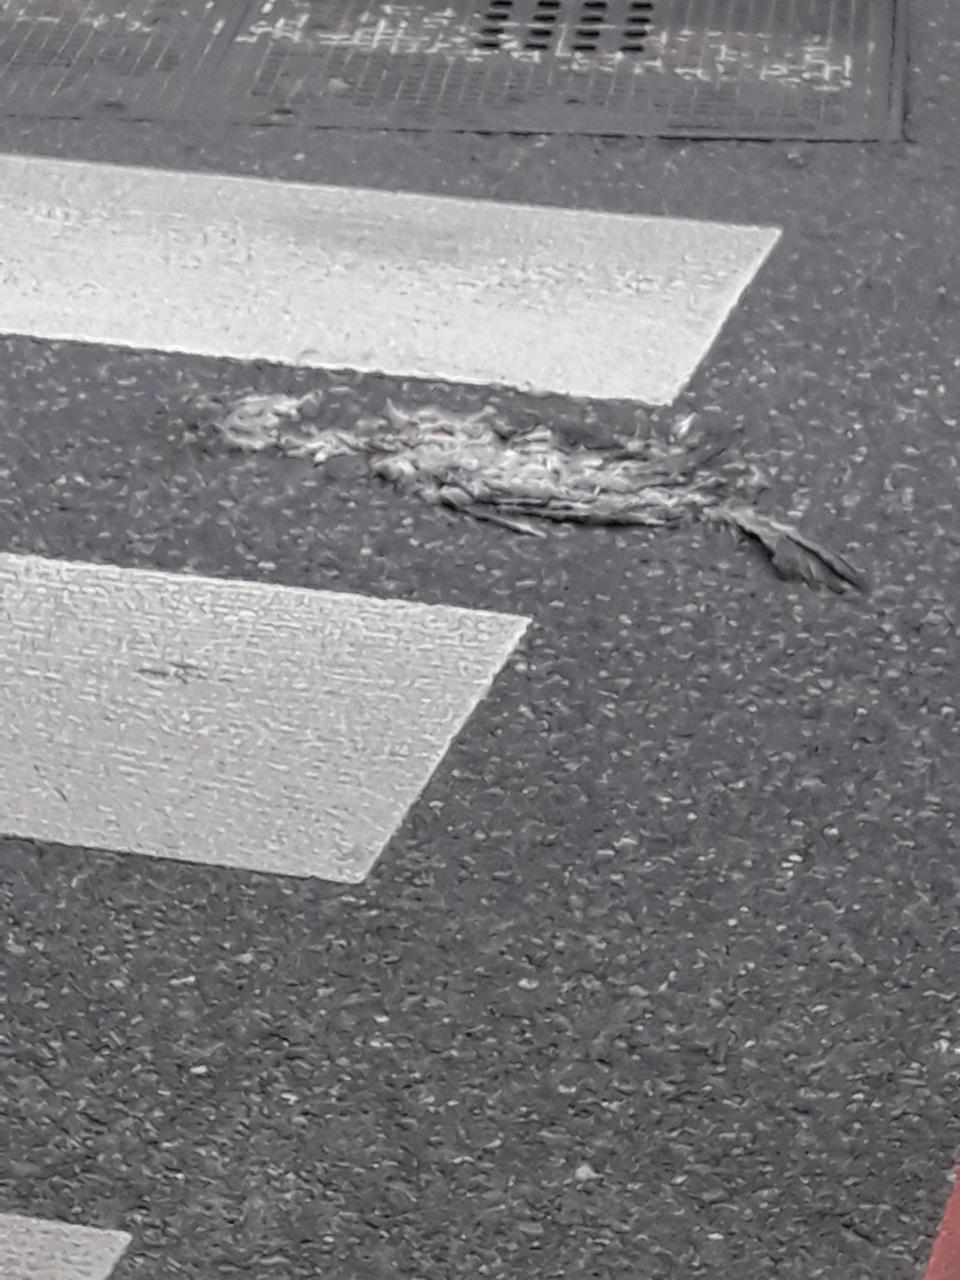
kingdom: Animalia
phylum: Chordata
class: Aves
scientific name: Aves
